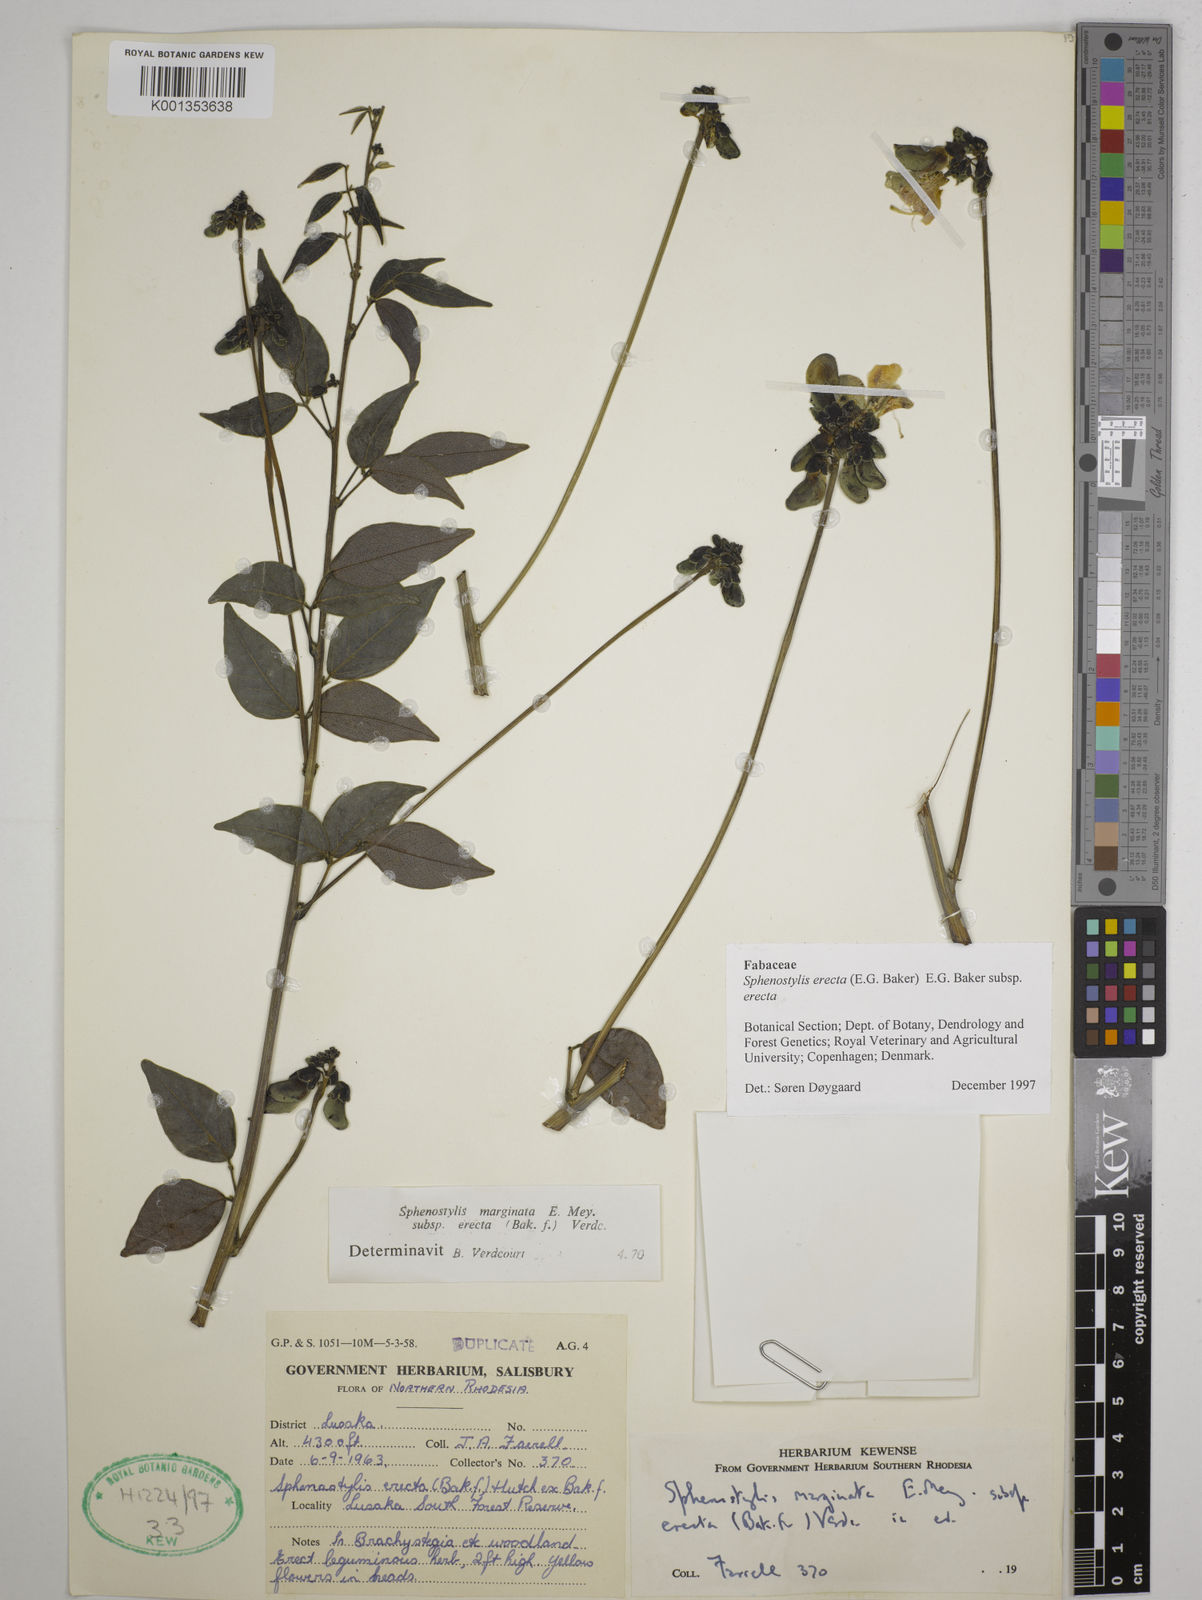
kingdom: Plantae
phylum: Tracheophyta
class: Magnoliopsida
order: Fabales
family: Fabaceae
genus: Sphenostylis
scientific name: Sphenostylis erecta
